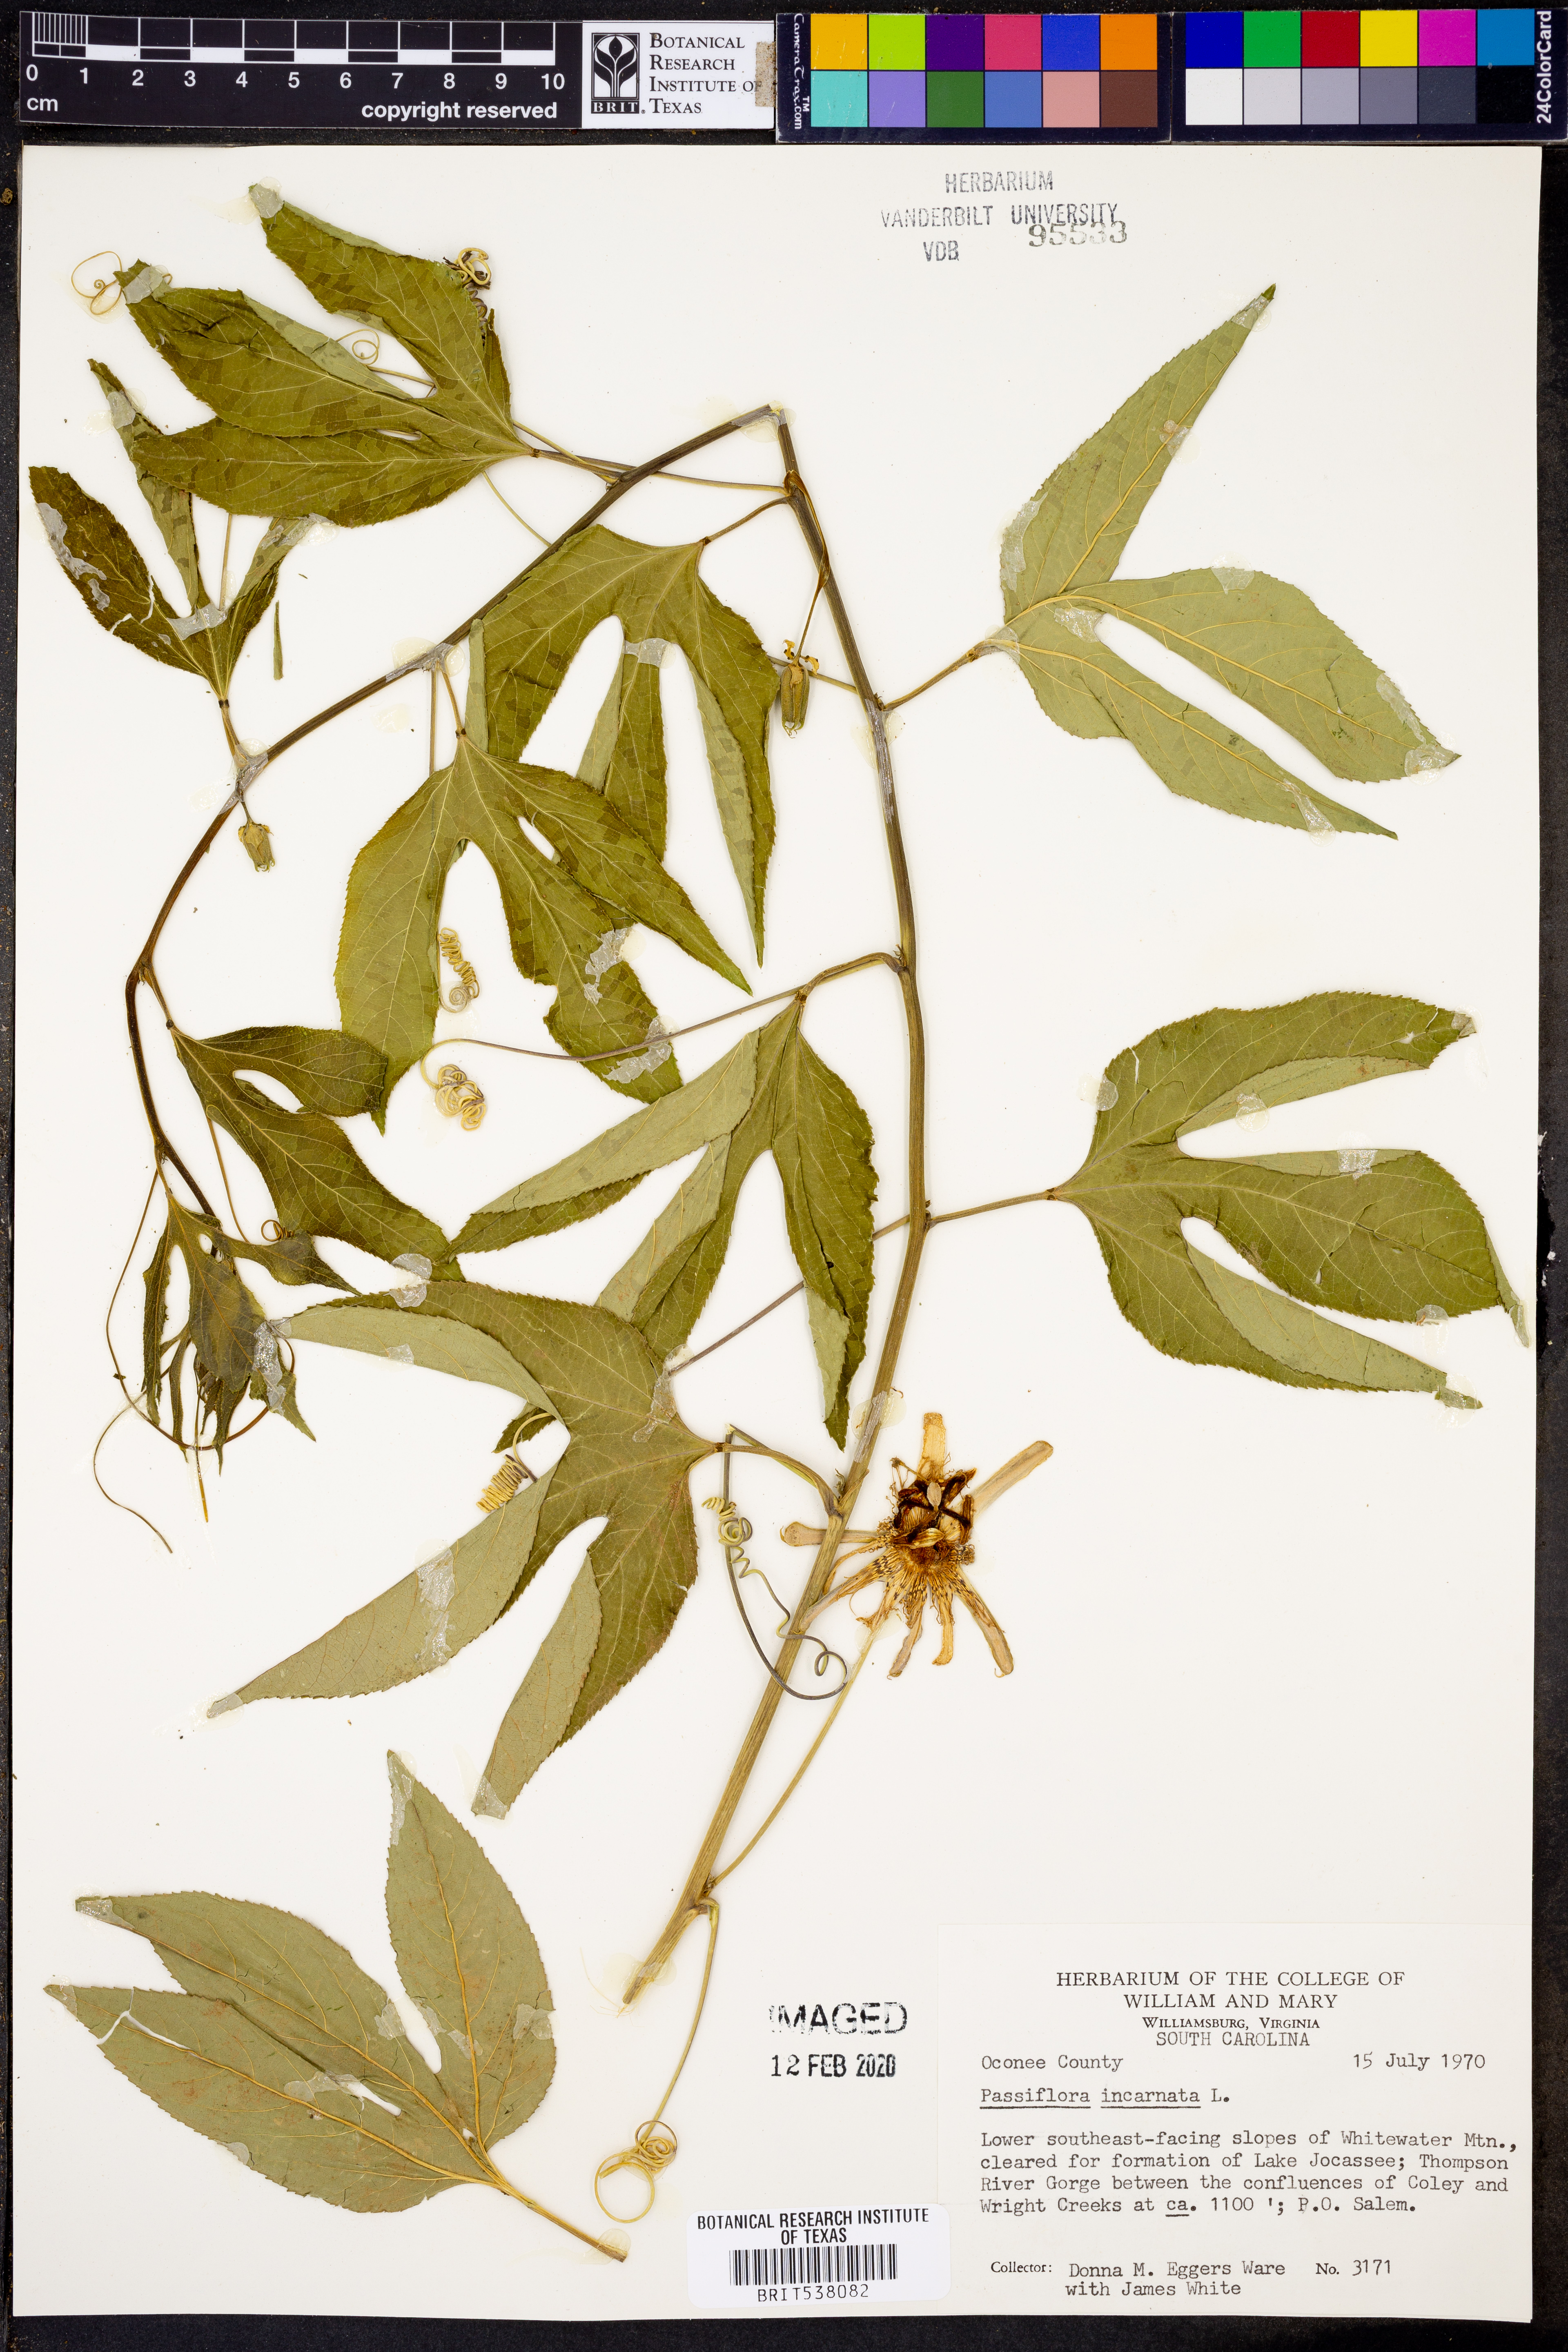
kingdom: Plantae
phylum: Tracheophyta
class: Magnoliopsida
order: Malpighiales
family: Passifloraceae
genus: Passiflora
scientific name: Passiflora incarnata
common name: Apricot-vine
